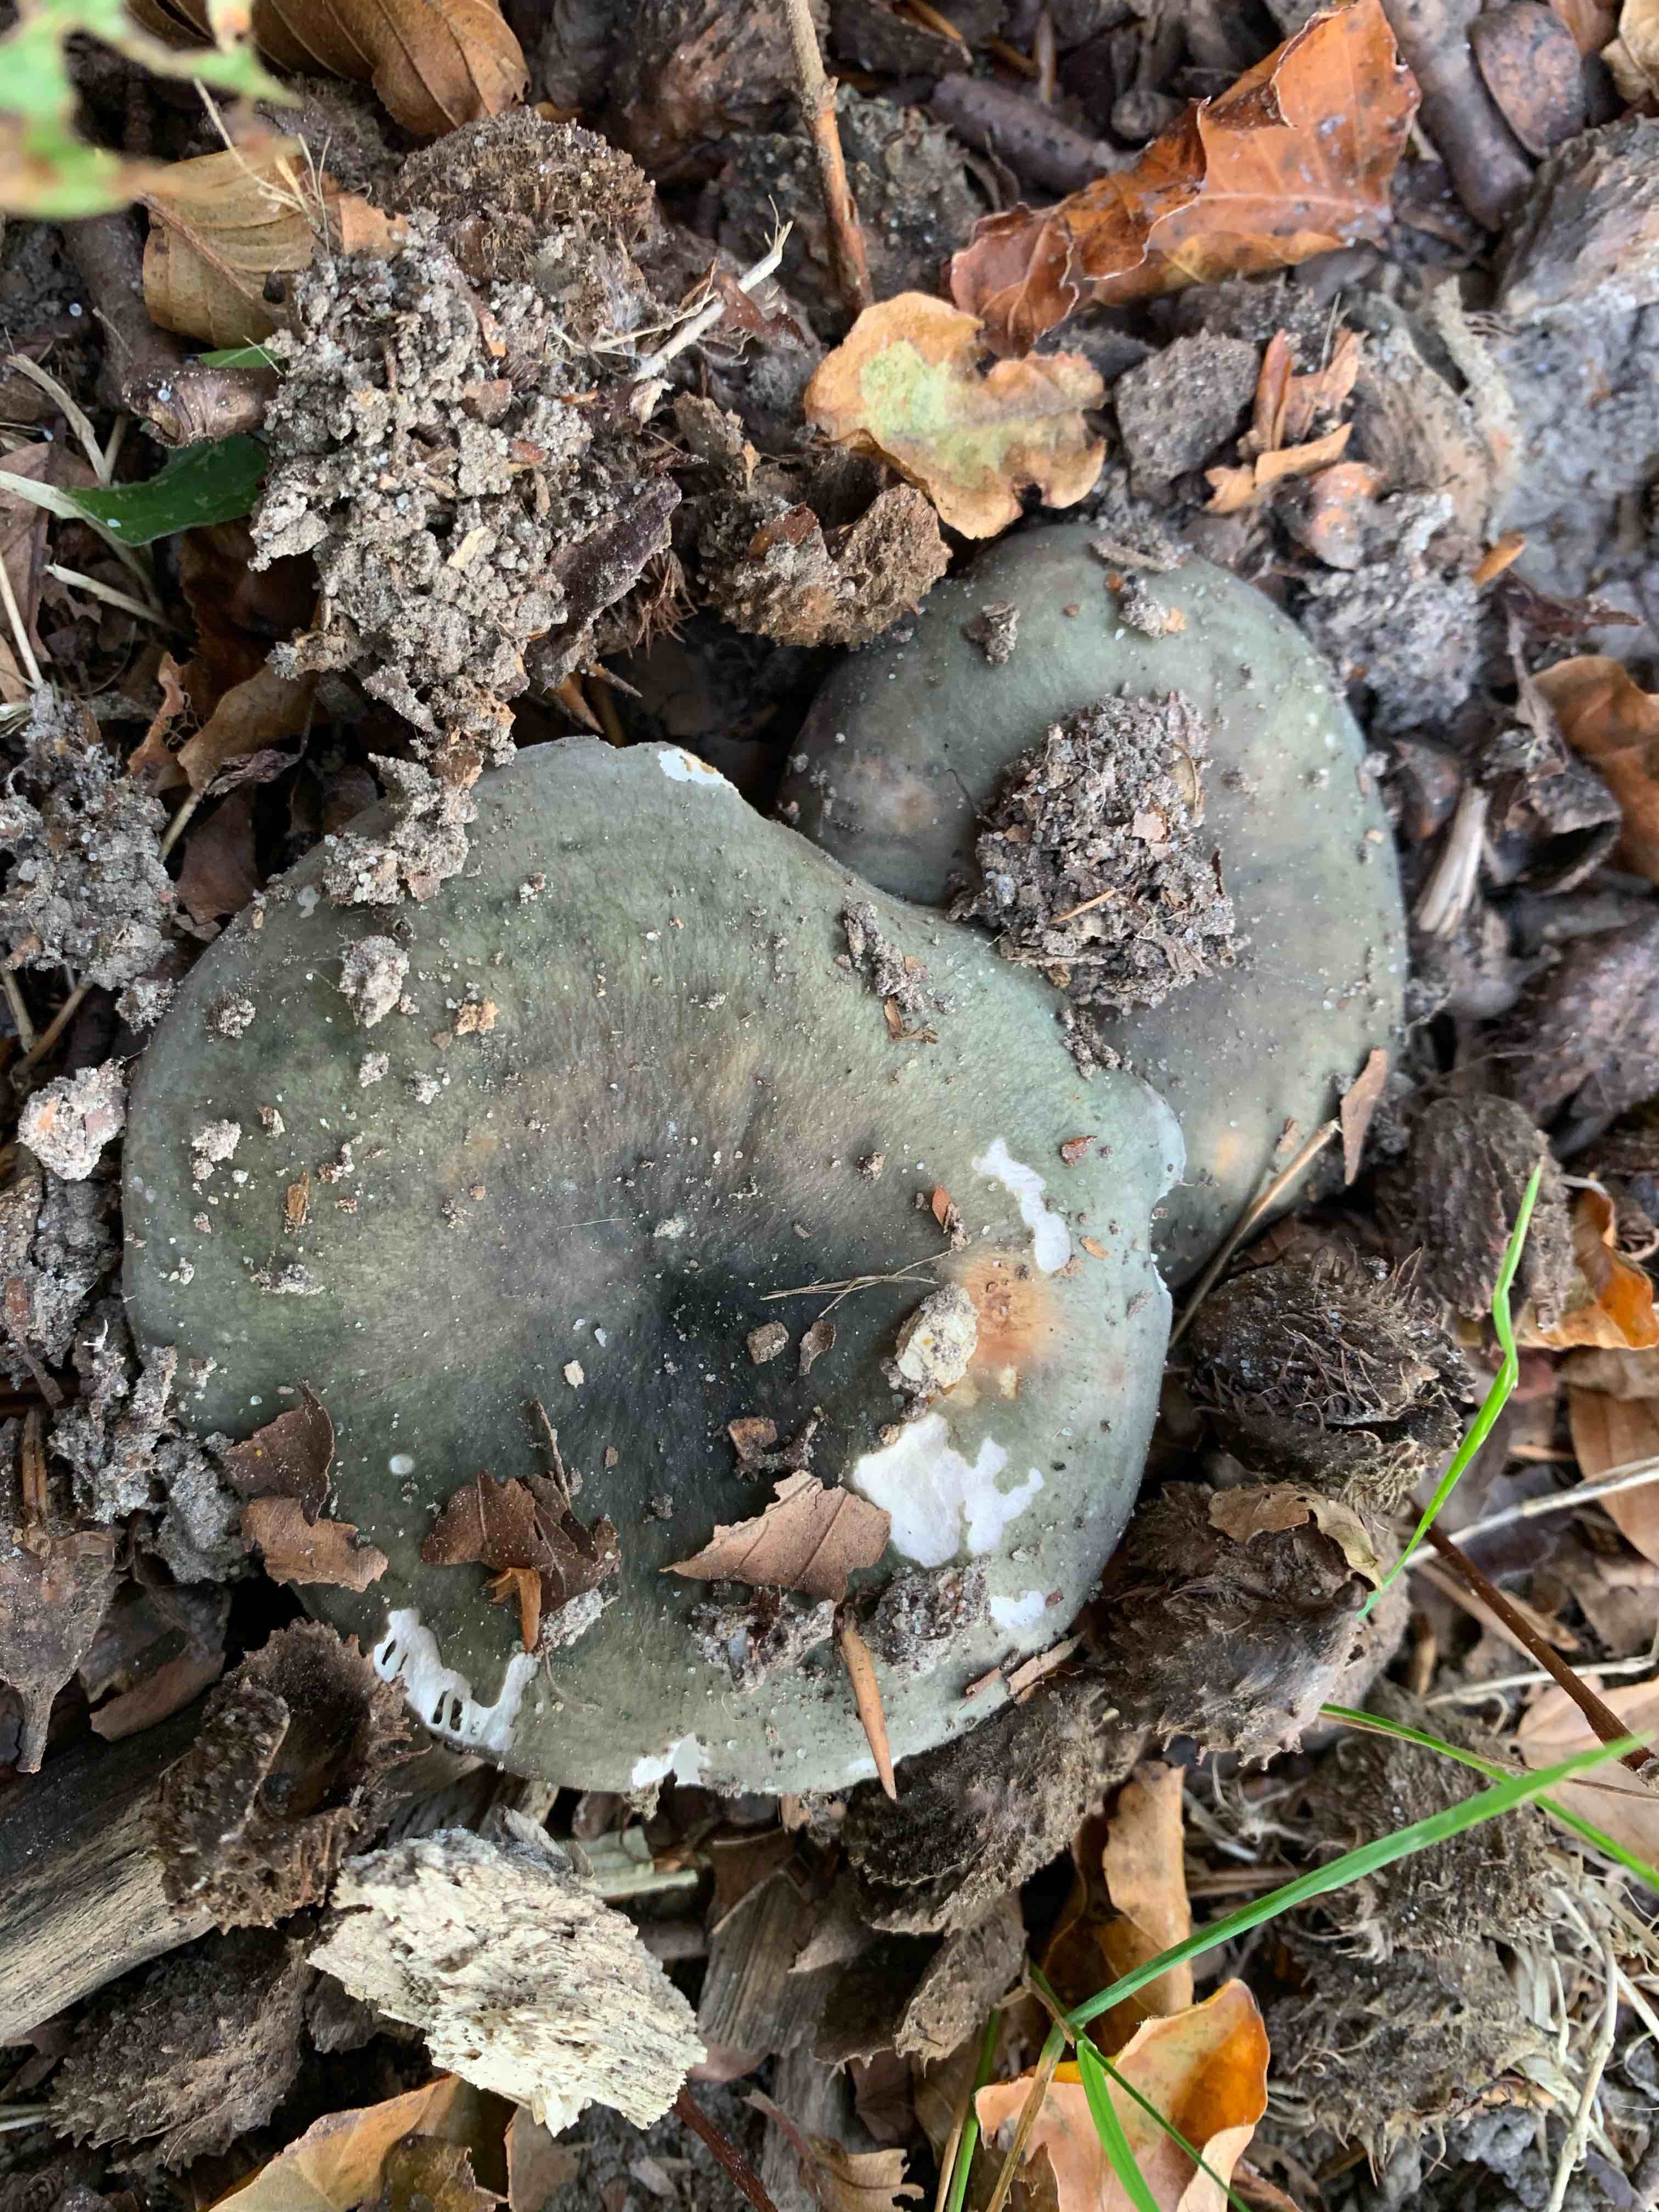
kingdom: Fungi
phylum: Basidiomycota
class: Agaricomycetes
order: Russulales
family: Russulaceae
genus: Russula
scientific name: Russula
